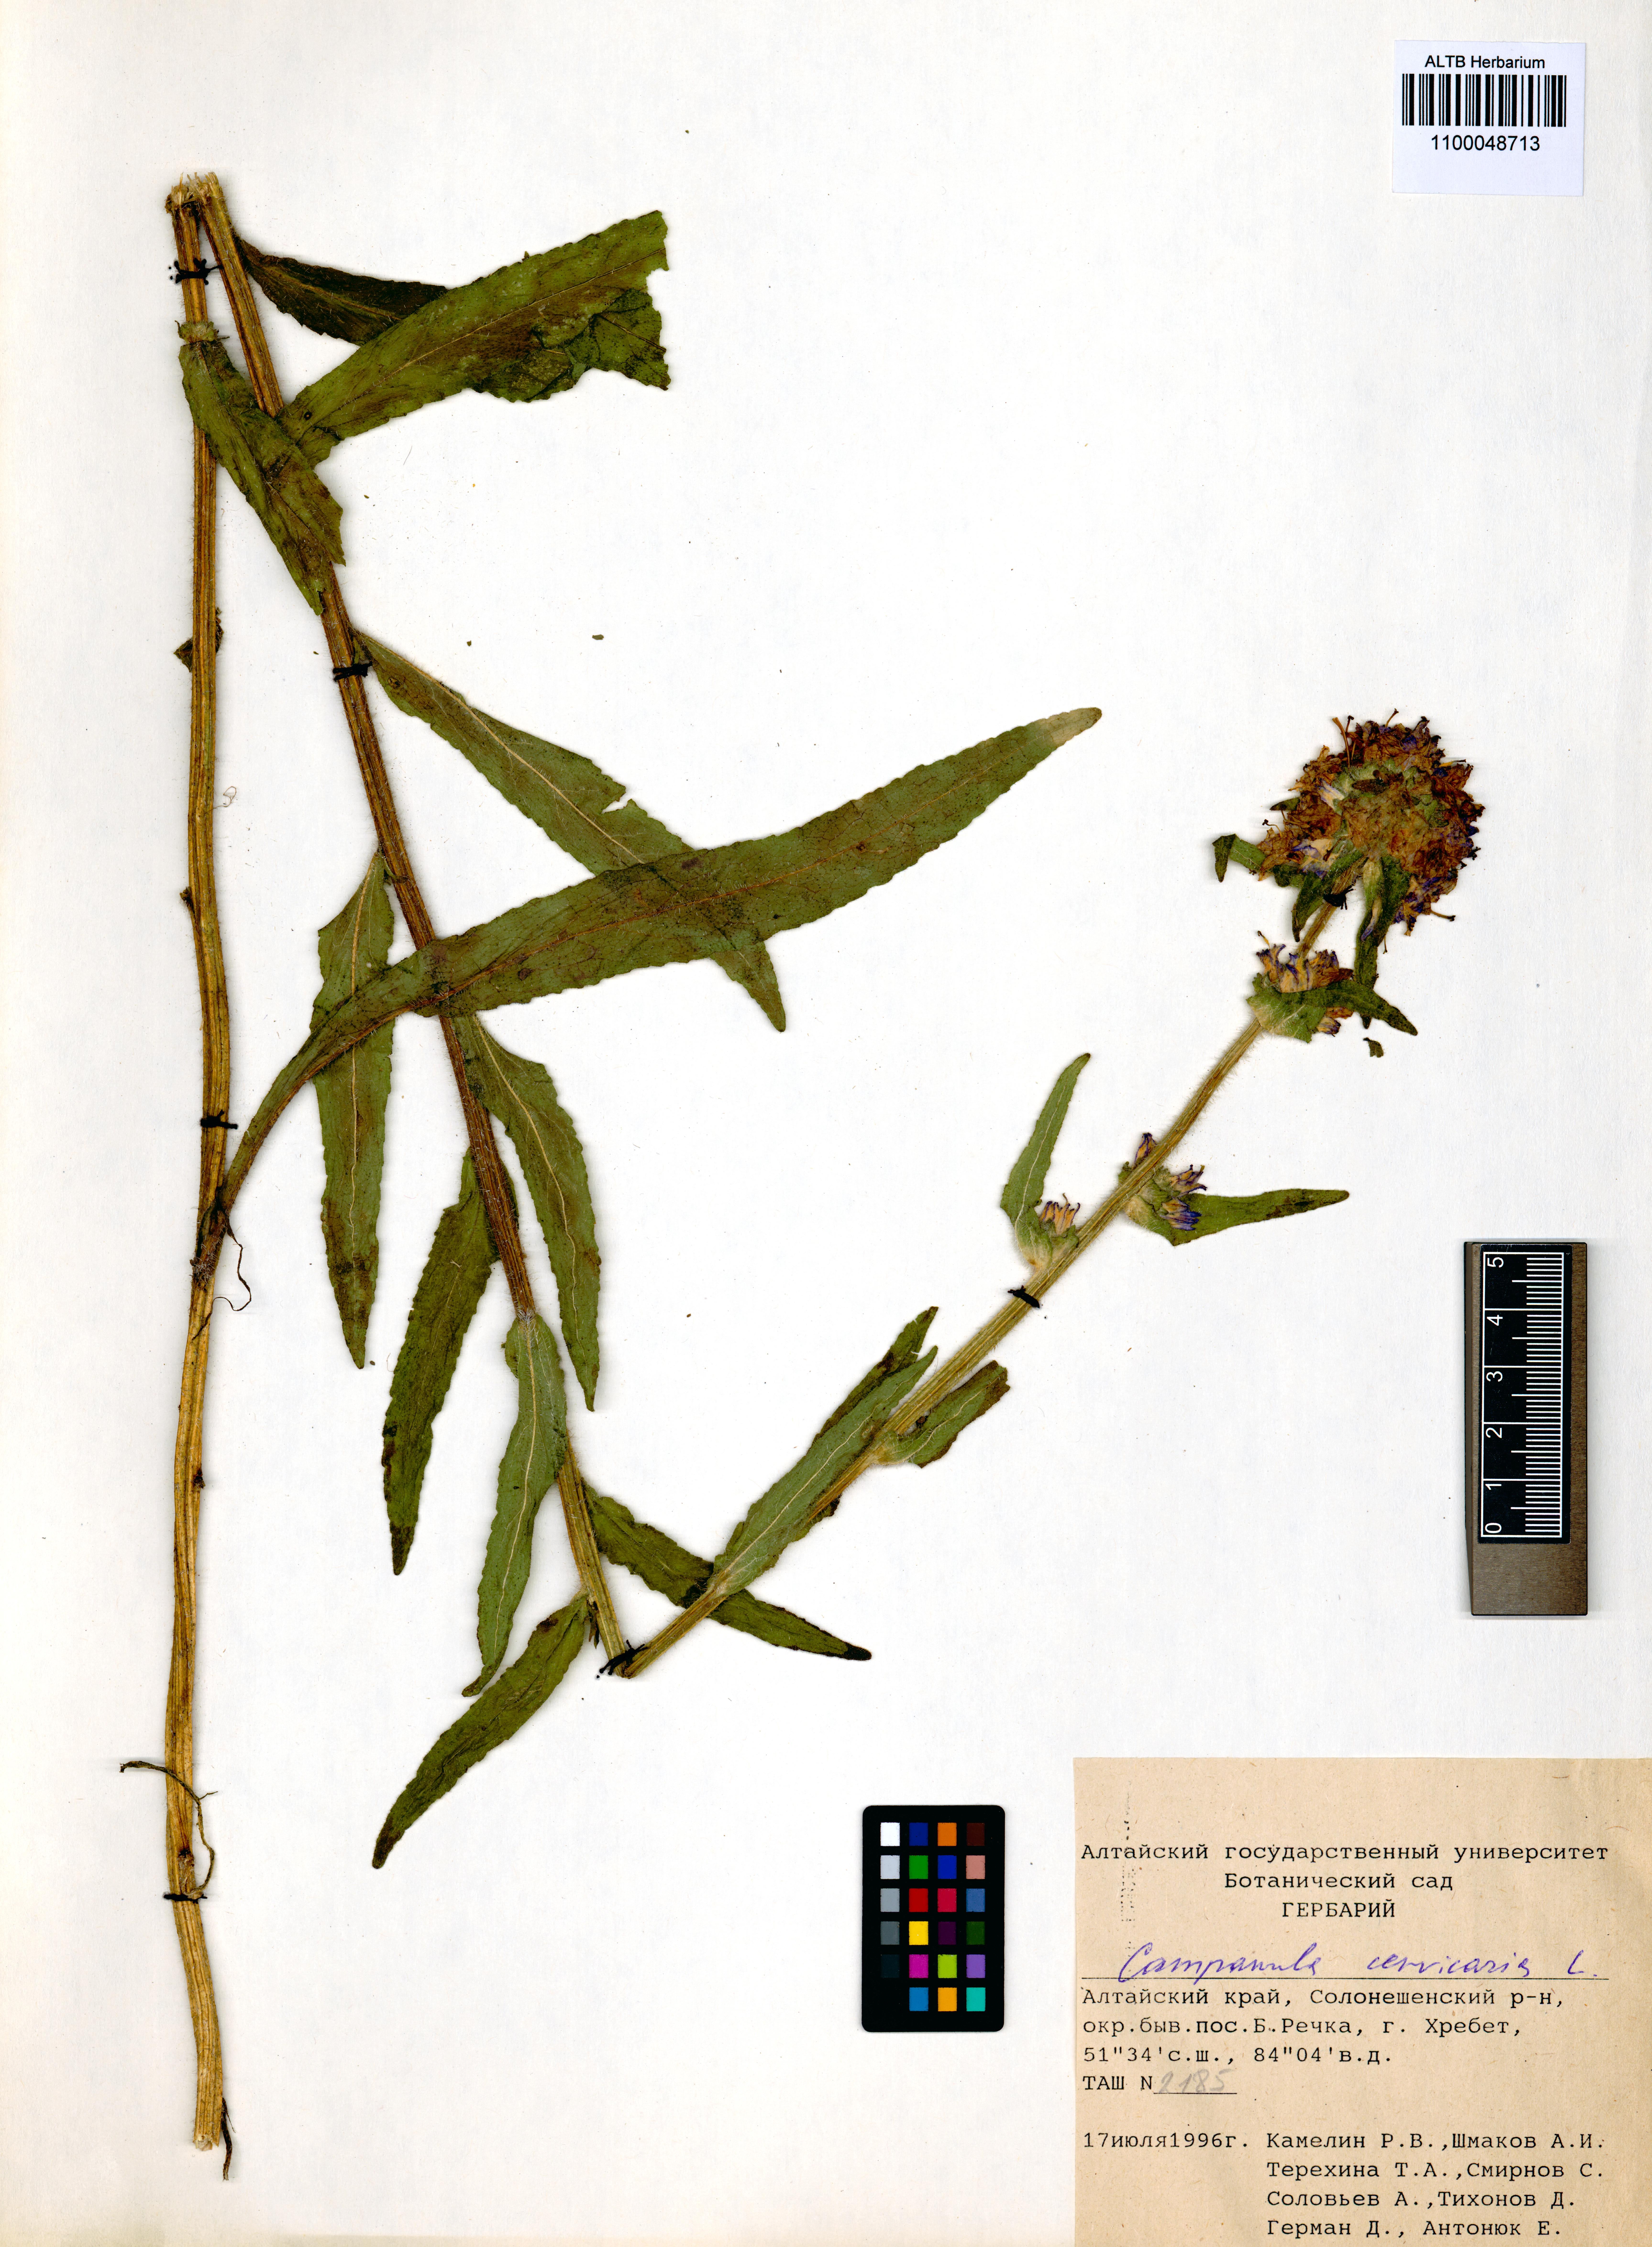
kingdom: Plantae
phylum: Tracheophyta
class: Magnoliopsida
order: Asterales
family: Campanulaceae
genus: Campanula
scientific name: Campanula cervicaria
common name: Bristly bellflower
